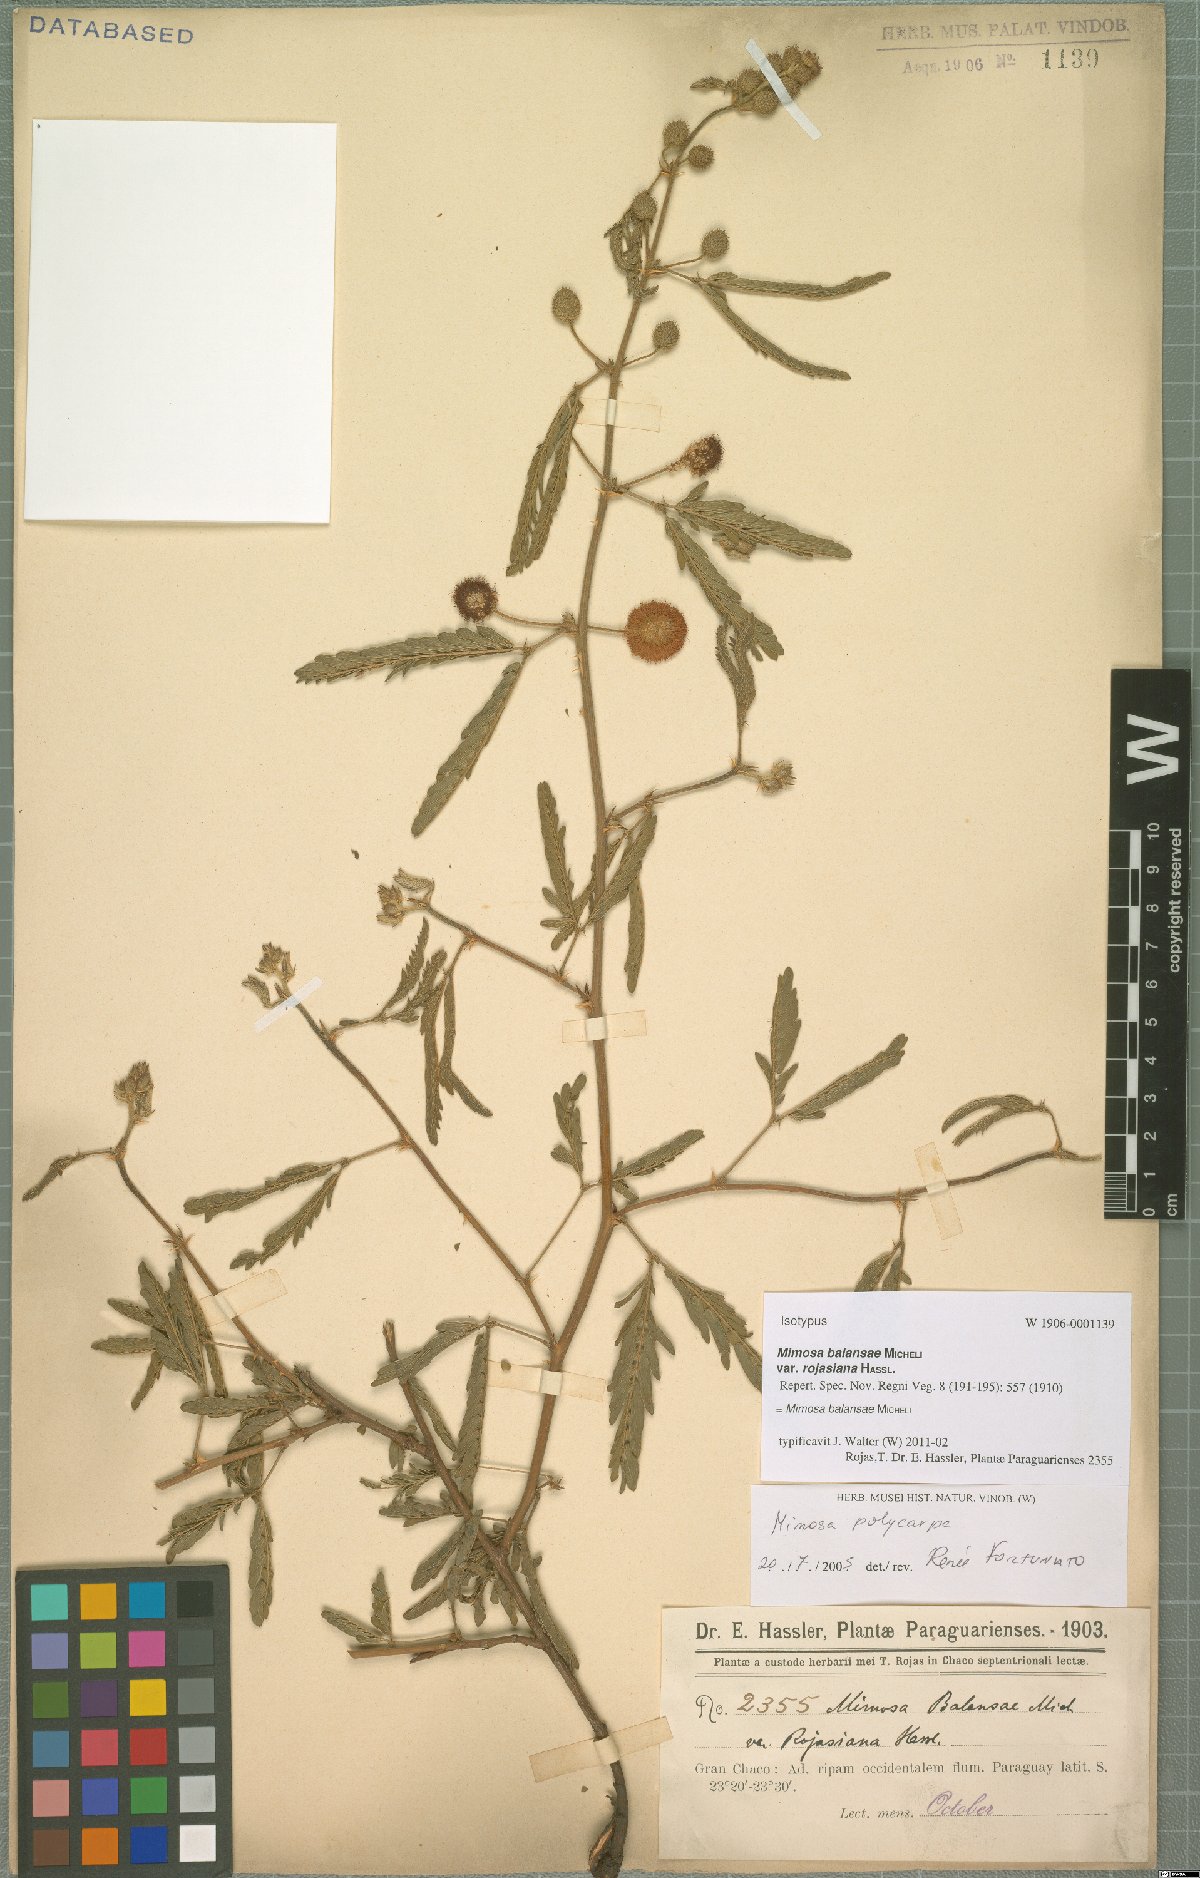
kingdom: Plantae
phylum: Tracheophyta
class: Magnoliopsida
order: Fabales
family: Fabaceae
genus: Mimosa
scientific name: Mimosa balansae
